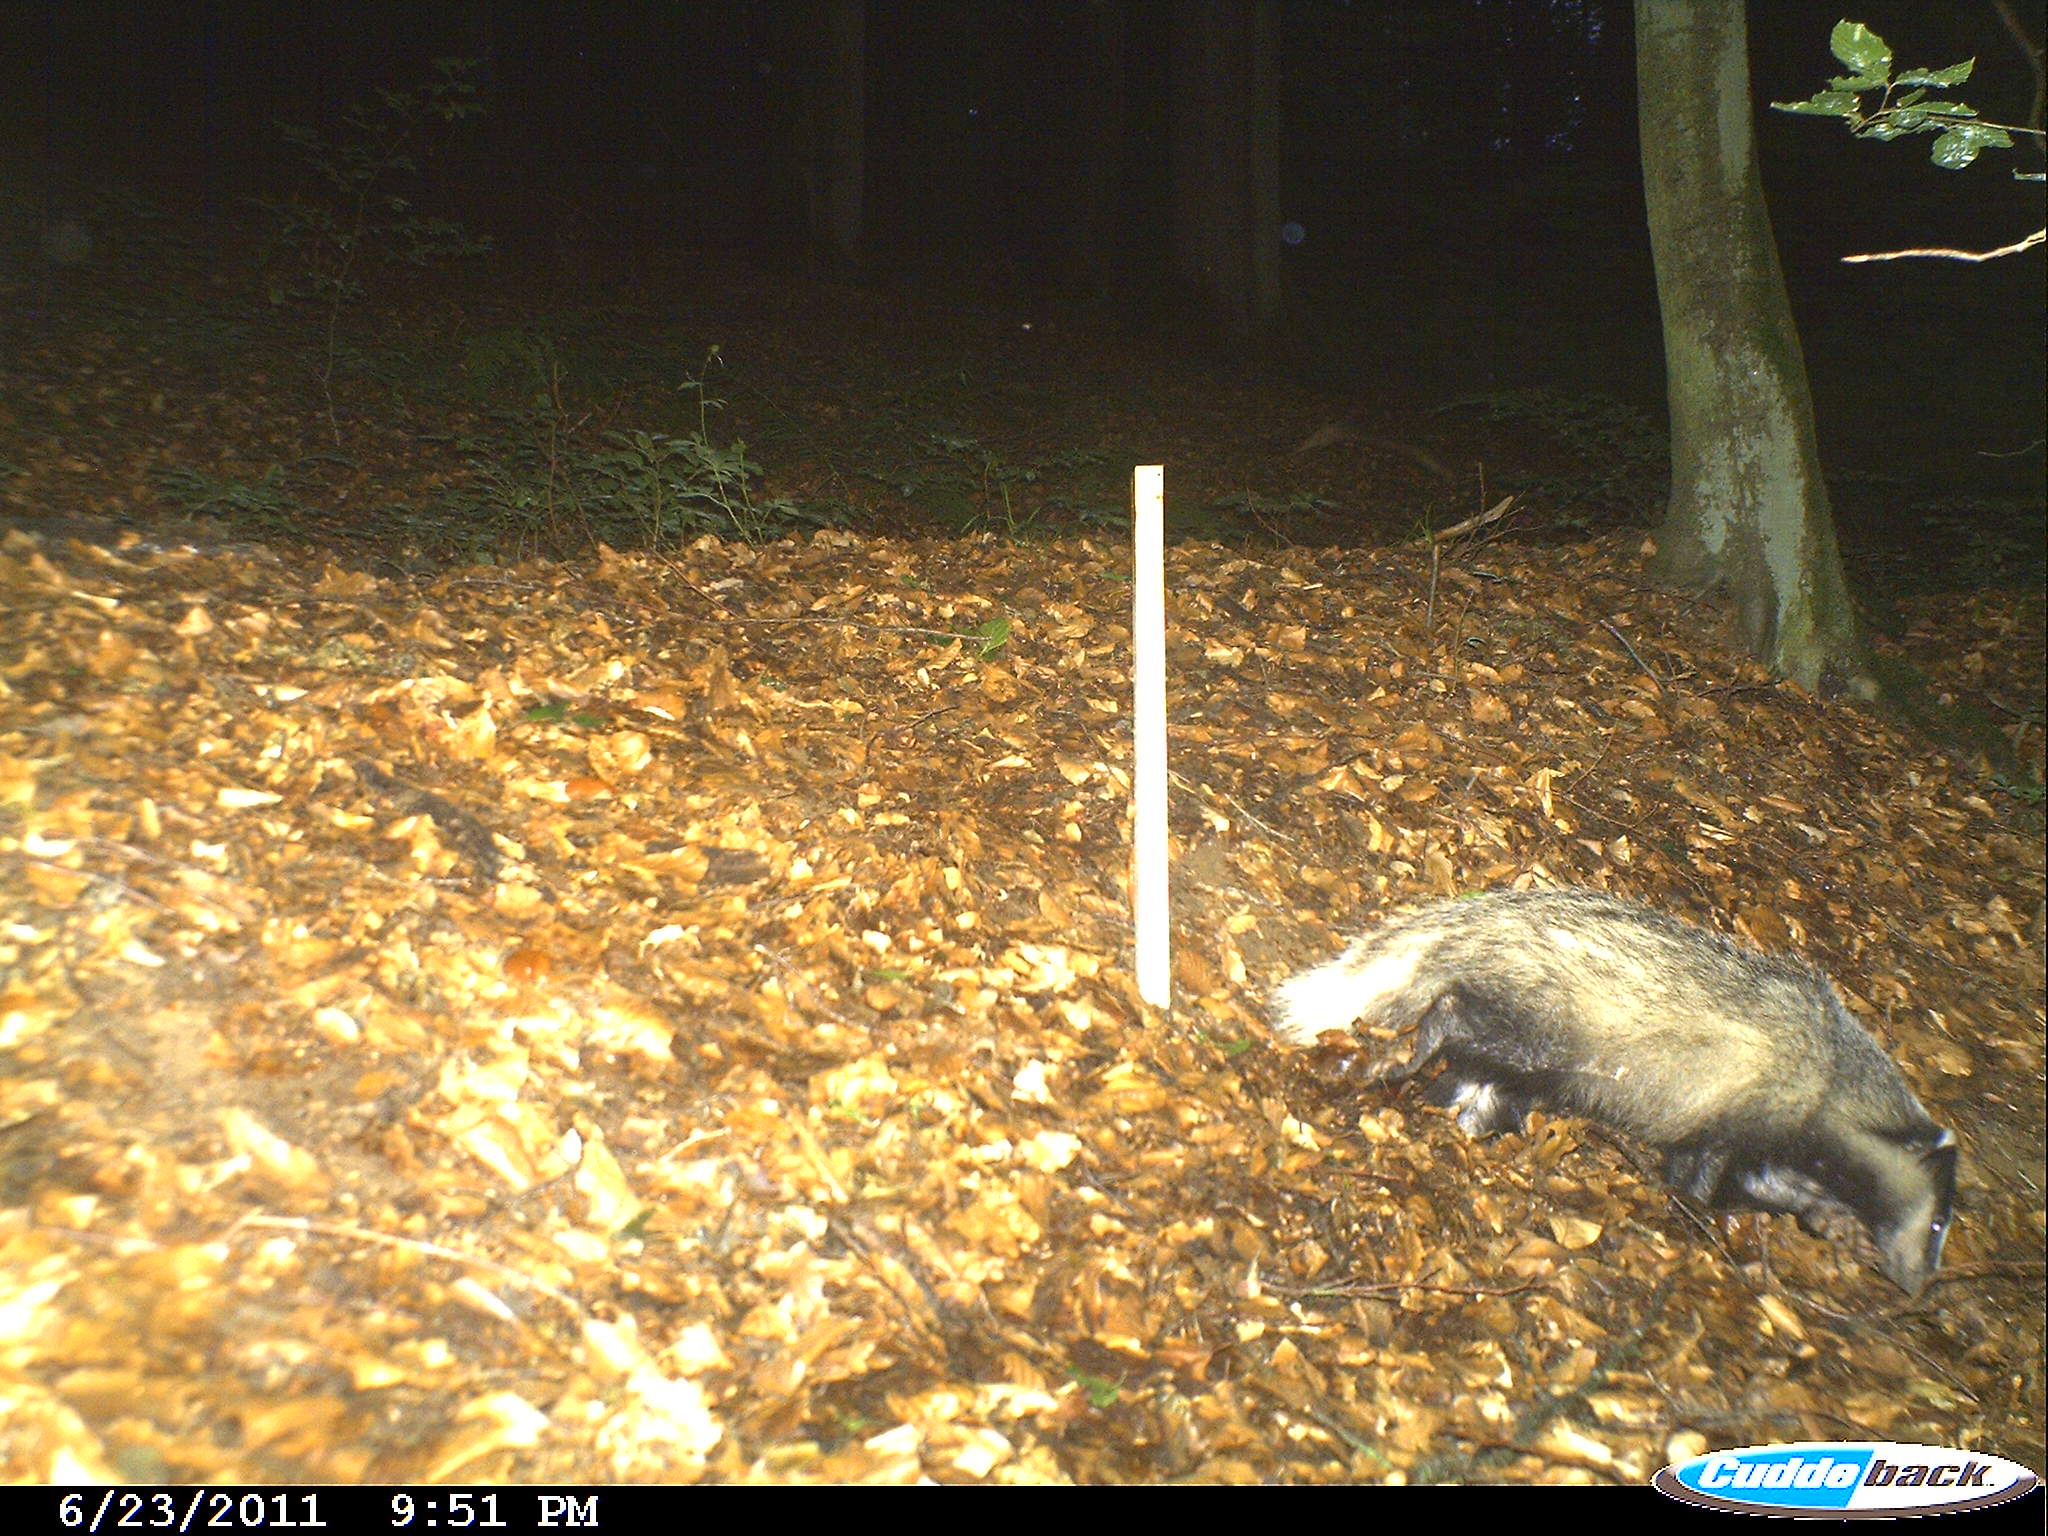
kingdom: Animalia
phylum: Chordata
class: Mammalia
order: Carnivora
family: Mustelidae
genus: Meles
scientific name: Meles meles
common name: Eurasian badger
